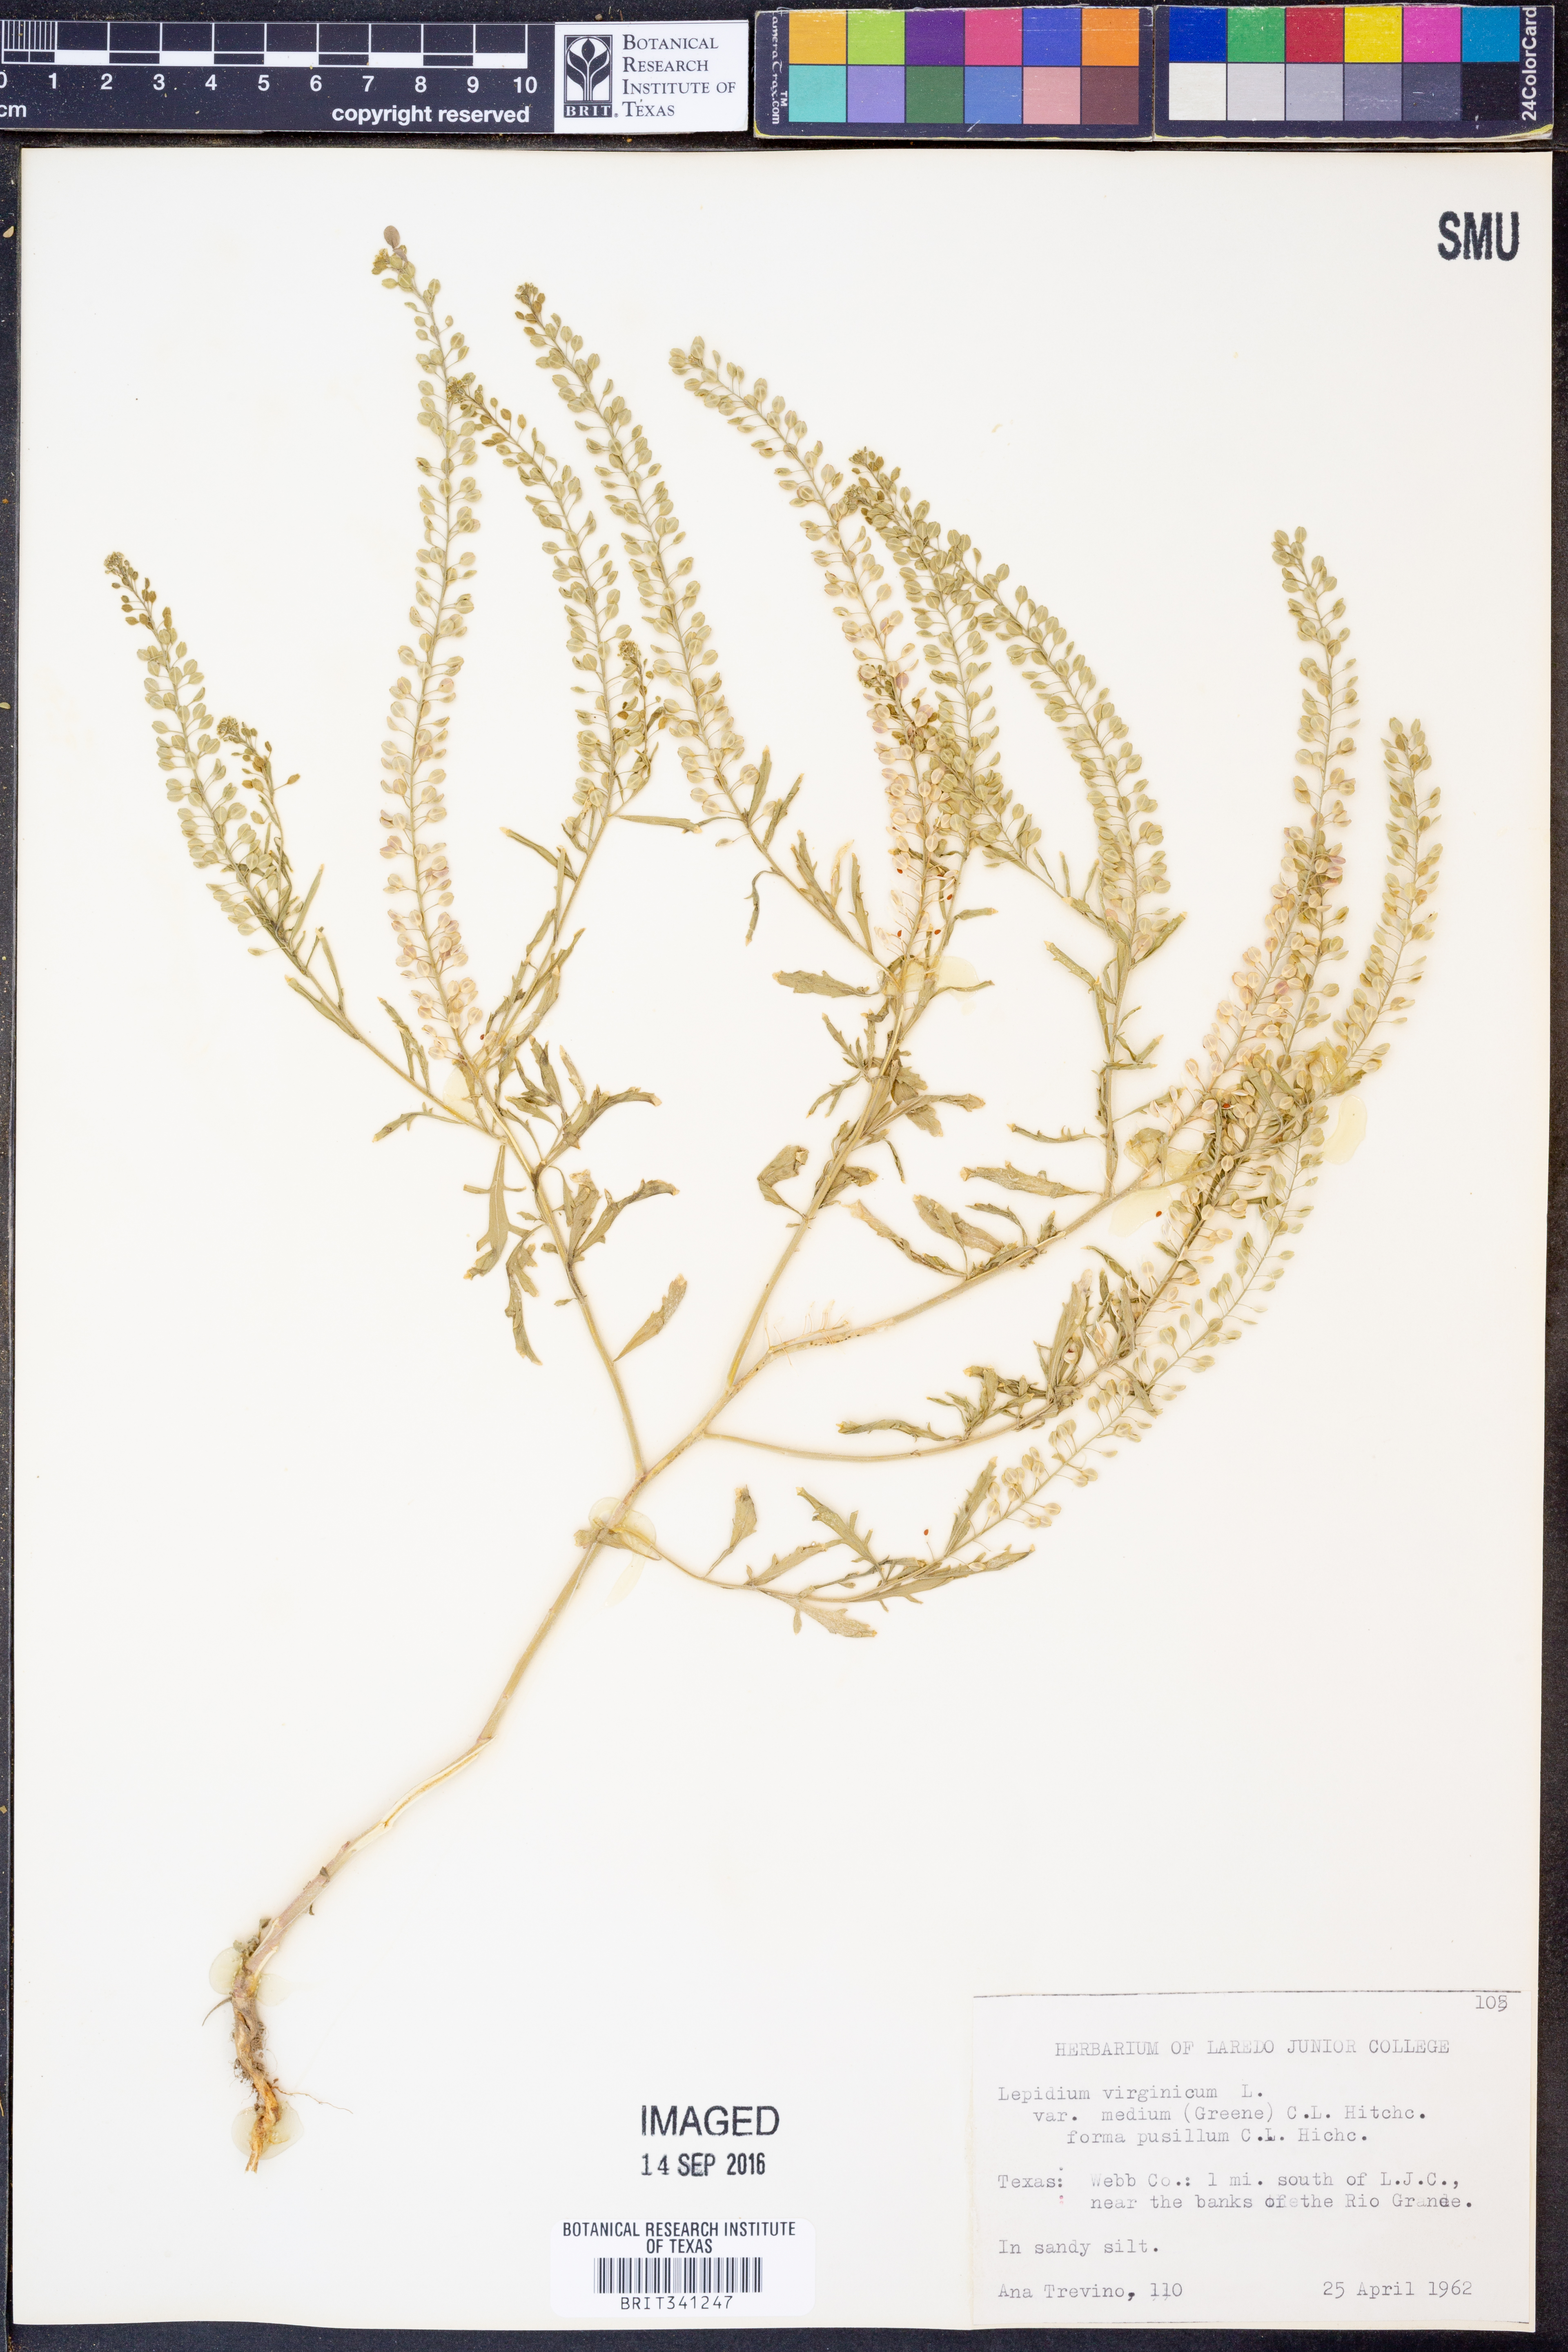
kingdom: Plantae
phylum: Tracheophyta
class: Magnoliopsida
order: Brassicales
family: Brassicaceae
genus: Lepidium
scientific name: Lepidium virginicum
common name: Least pepperwort
